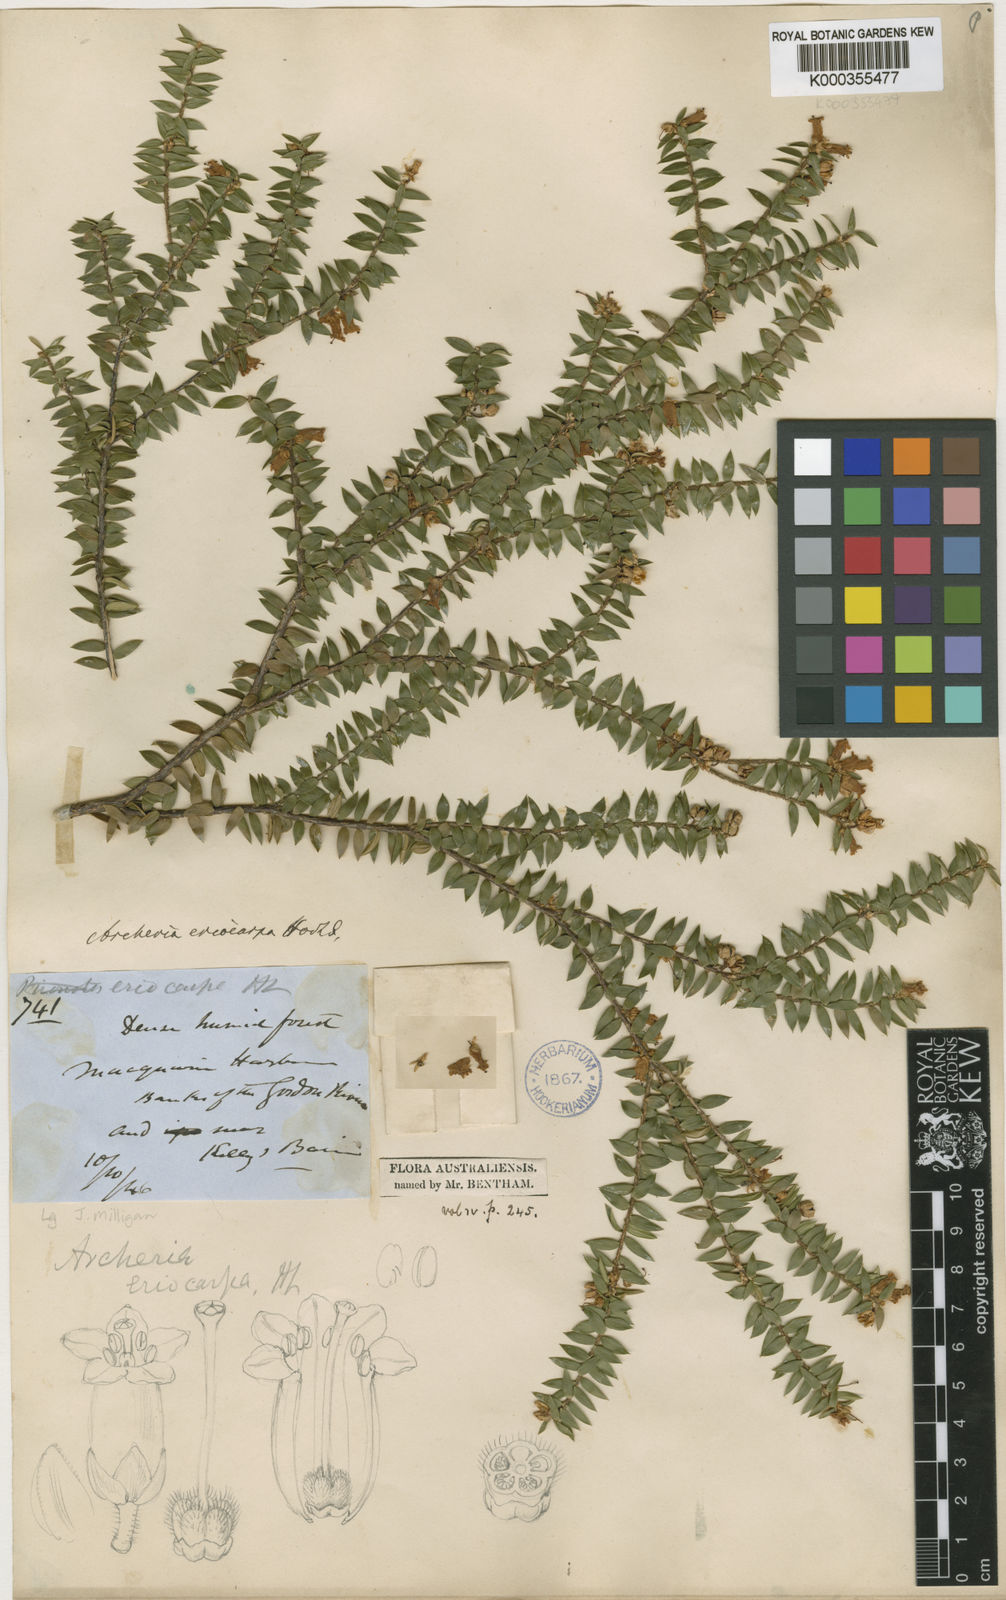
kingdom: Plantae
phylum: Tracheophyta
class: Magnoliopsida
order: Ericales
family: Ericaceae
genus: Archeria
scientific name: Archeria eriocarpa
